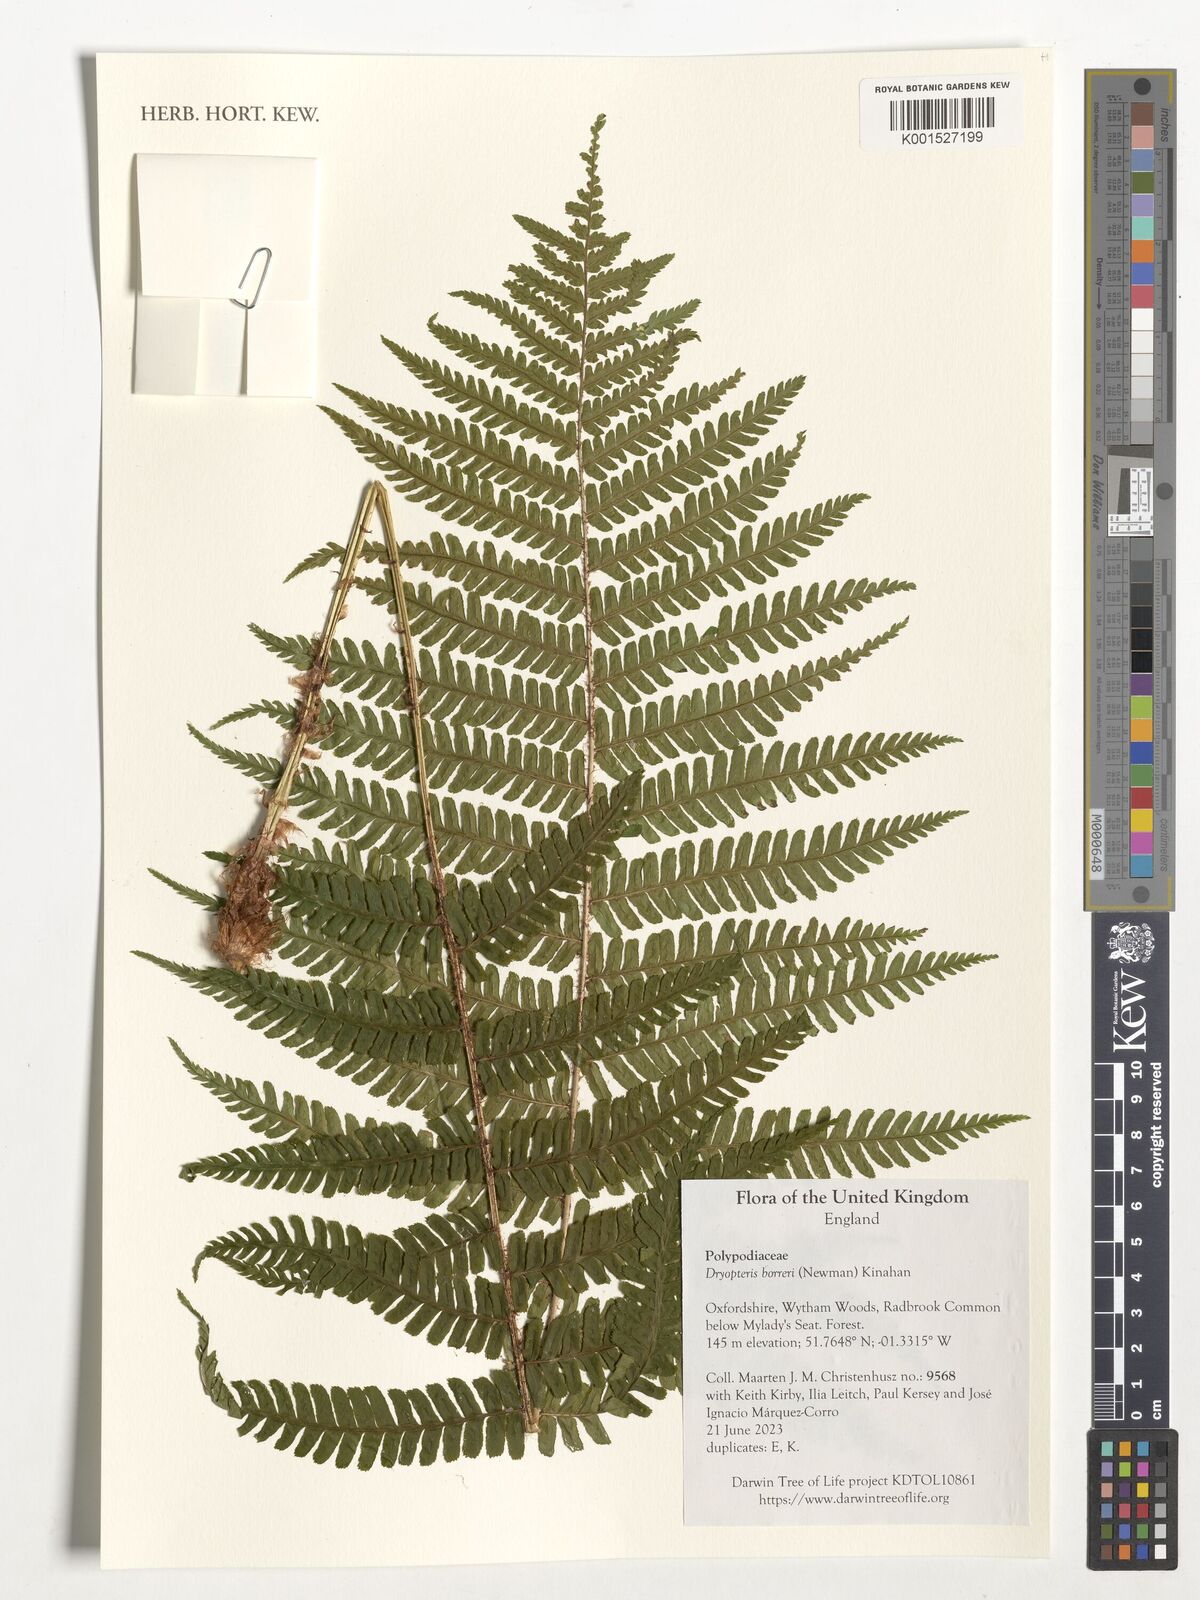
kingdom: Plantae
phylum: Tracheophyta
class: Polypodiopsida
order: Polypodiales
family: Dryopteridaceae
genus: Dryopteris
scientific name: Dryopteris
